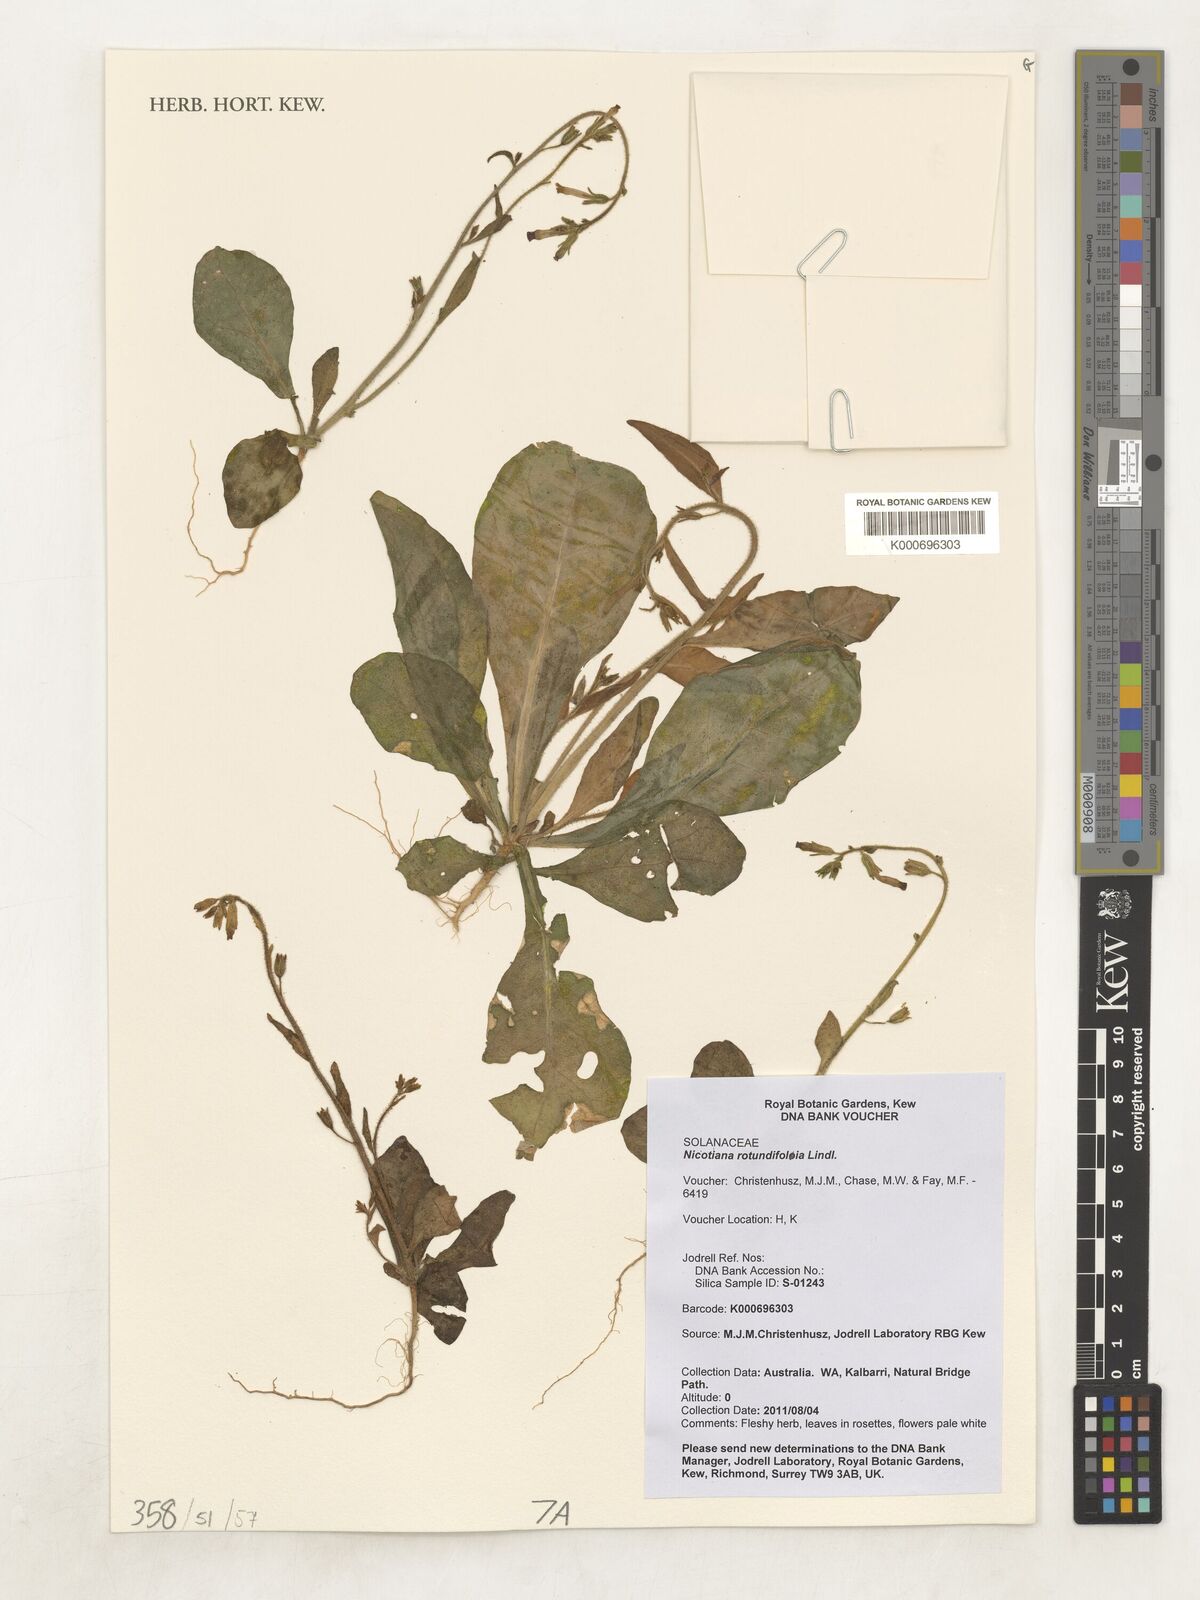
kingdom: Plantae
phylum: Tracheophyta
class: Magnoliopsida
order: Solanales
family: Solanaceae
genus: Nicotiana
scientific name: Nicotiana rotundifolia
